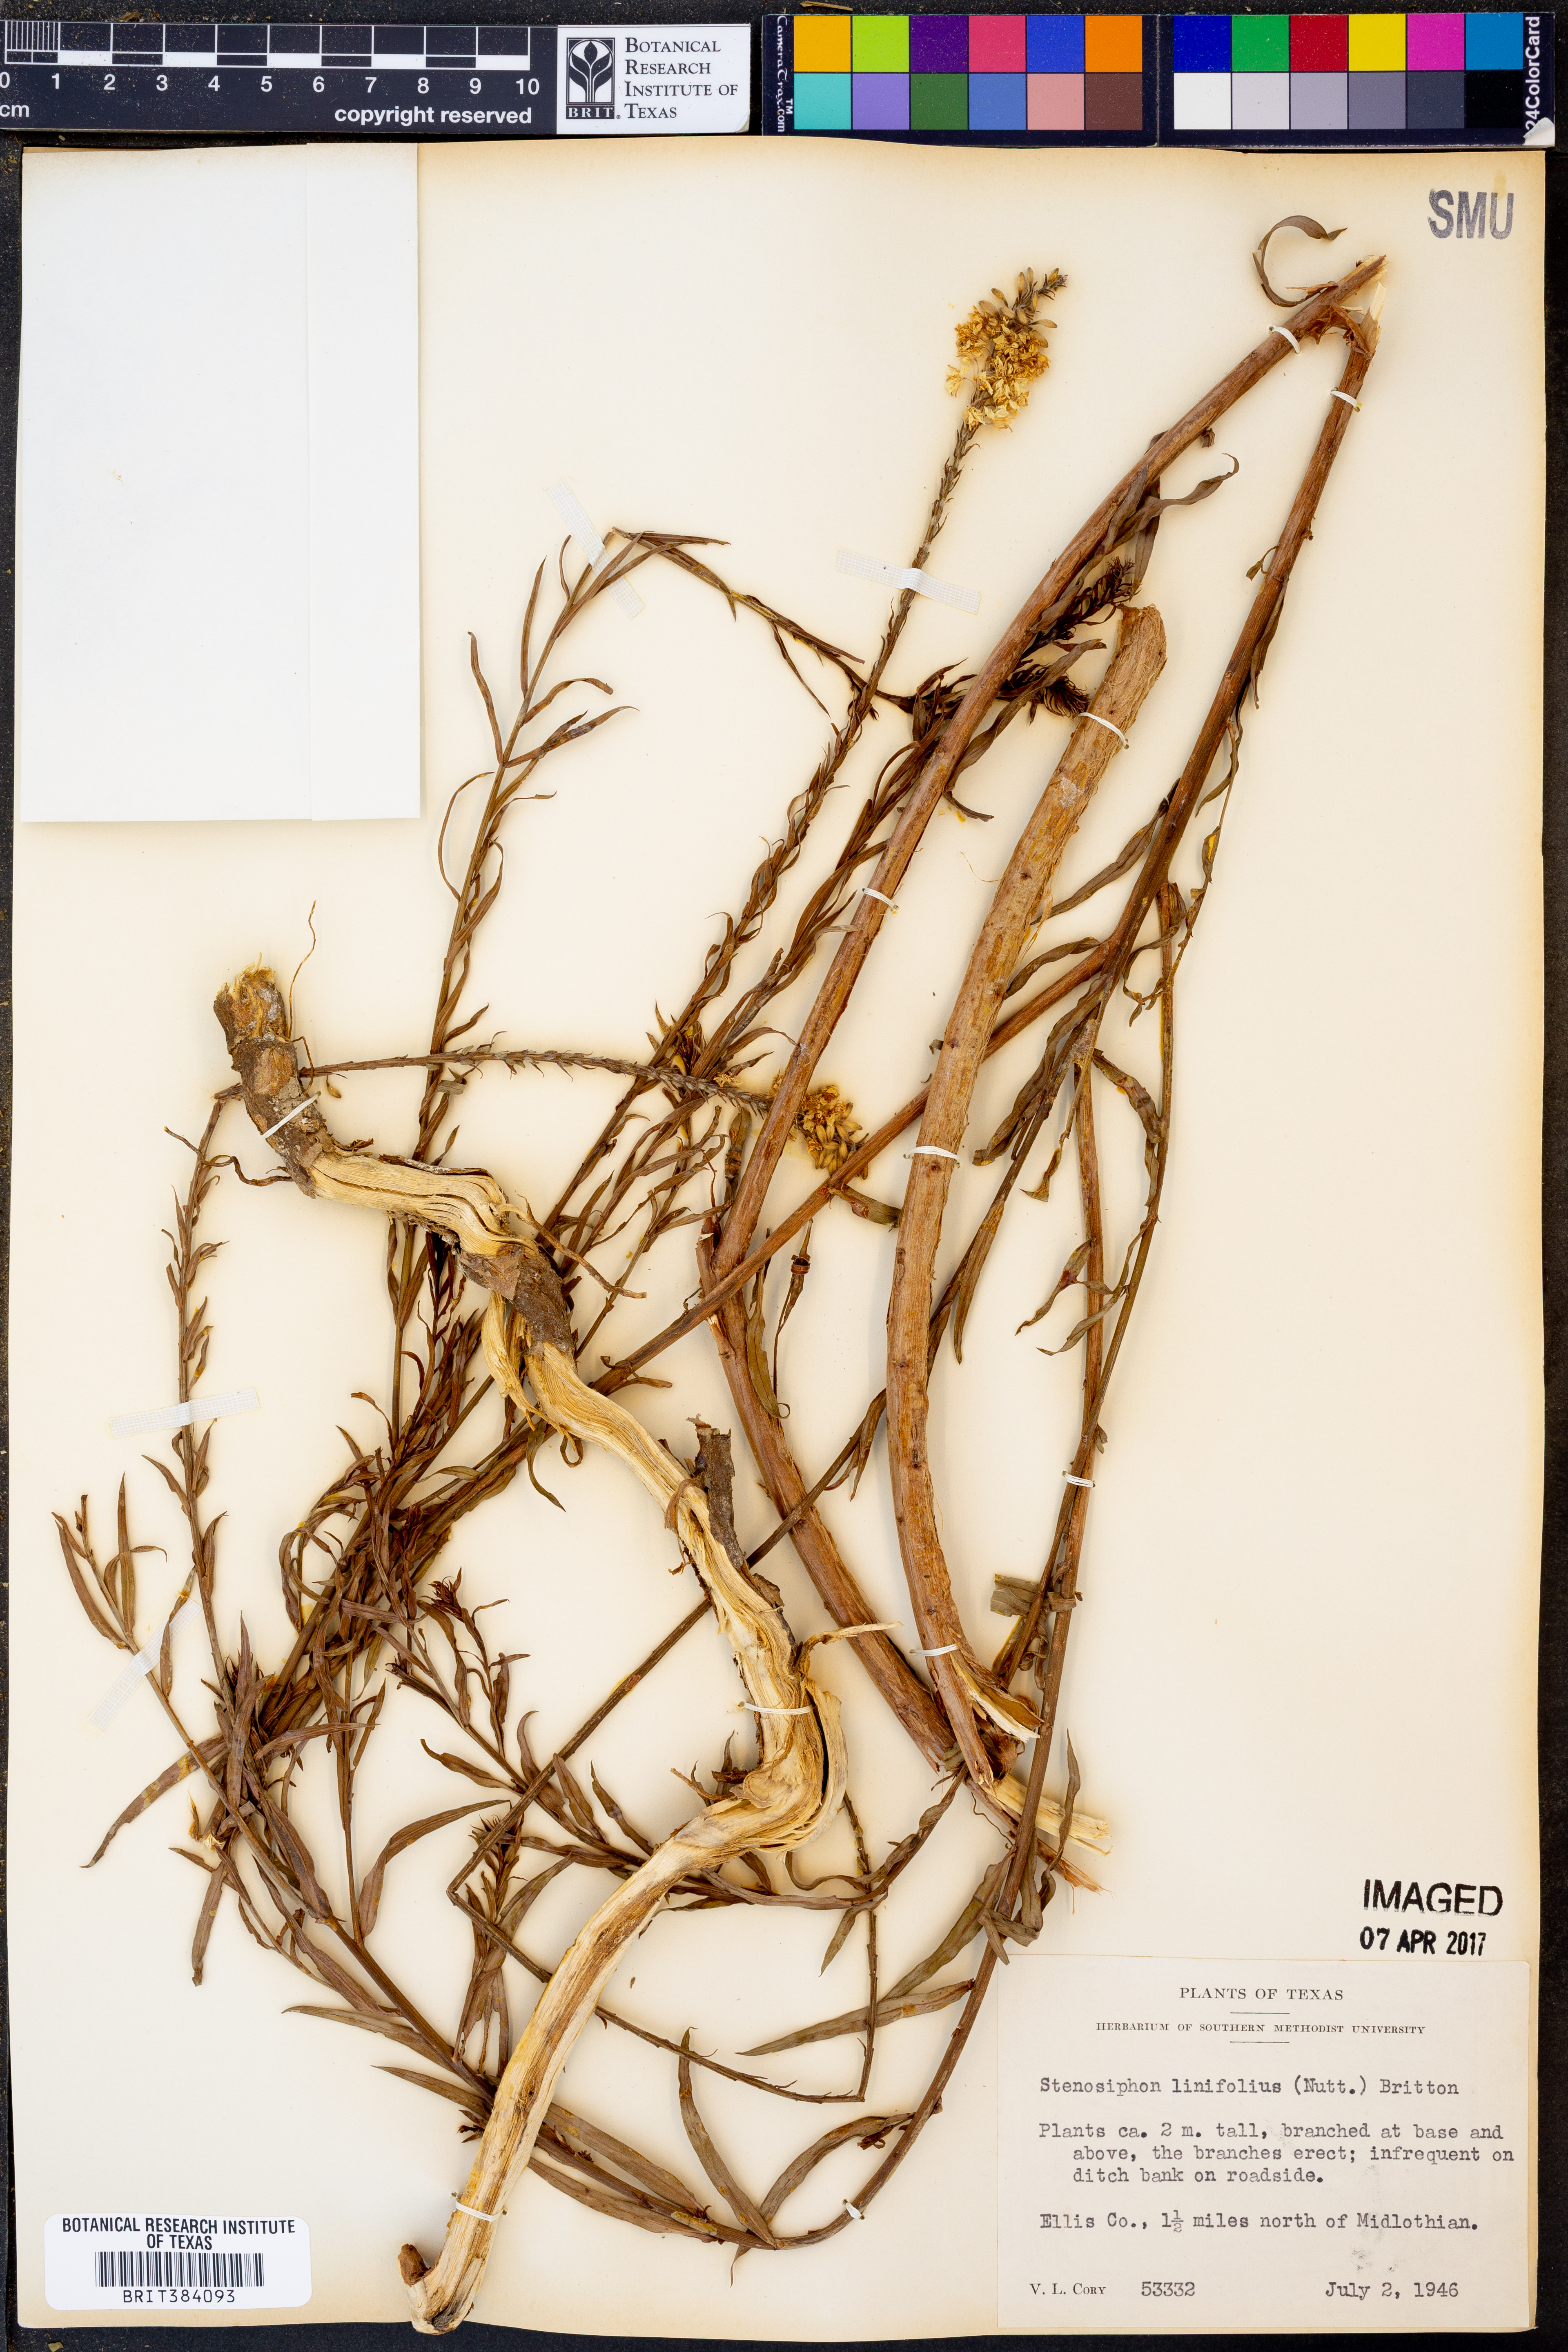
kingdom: Plantae
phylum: Tracheophyta
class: Magnoliopsida
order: Myrtales
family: Onagraceae
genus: Oenothera
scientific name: Oenothera glaucifolia
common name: False gaura
